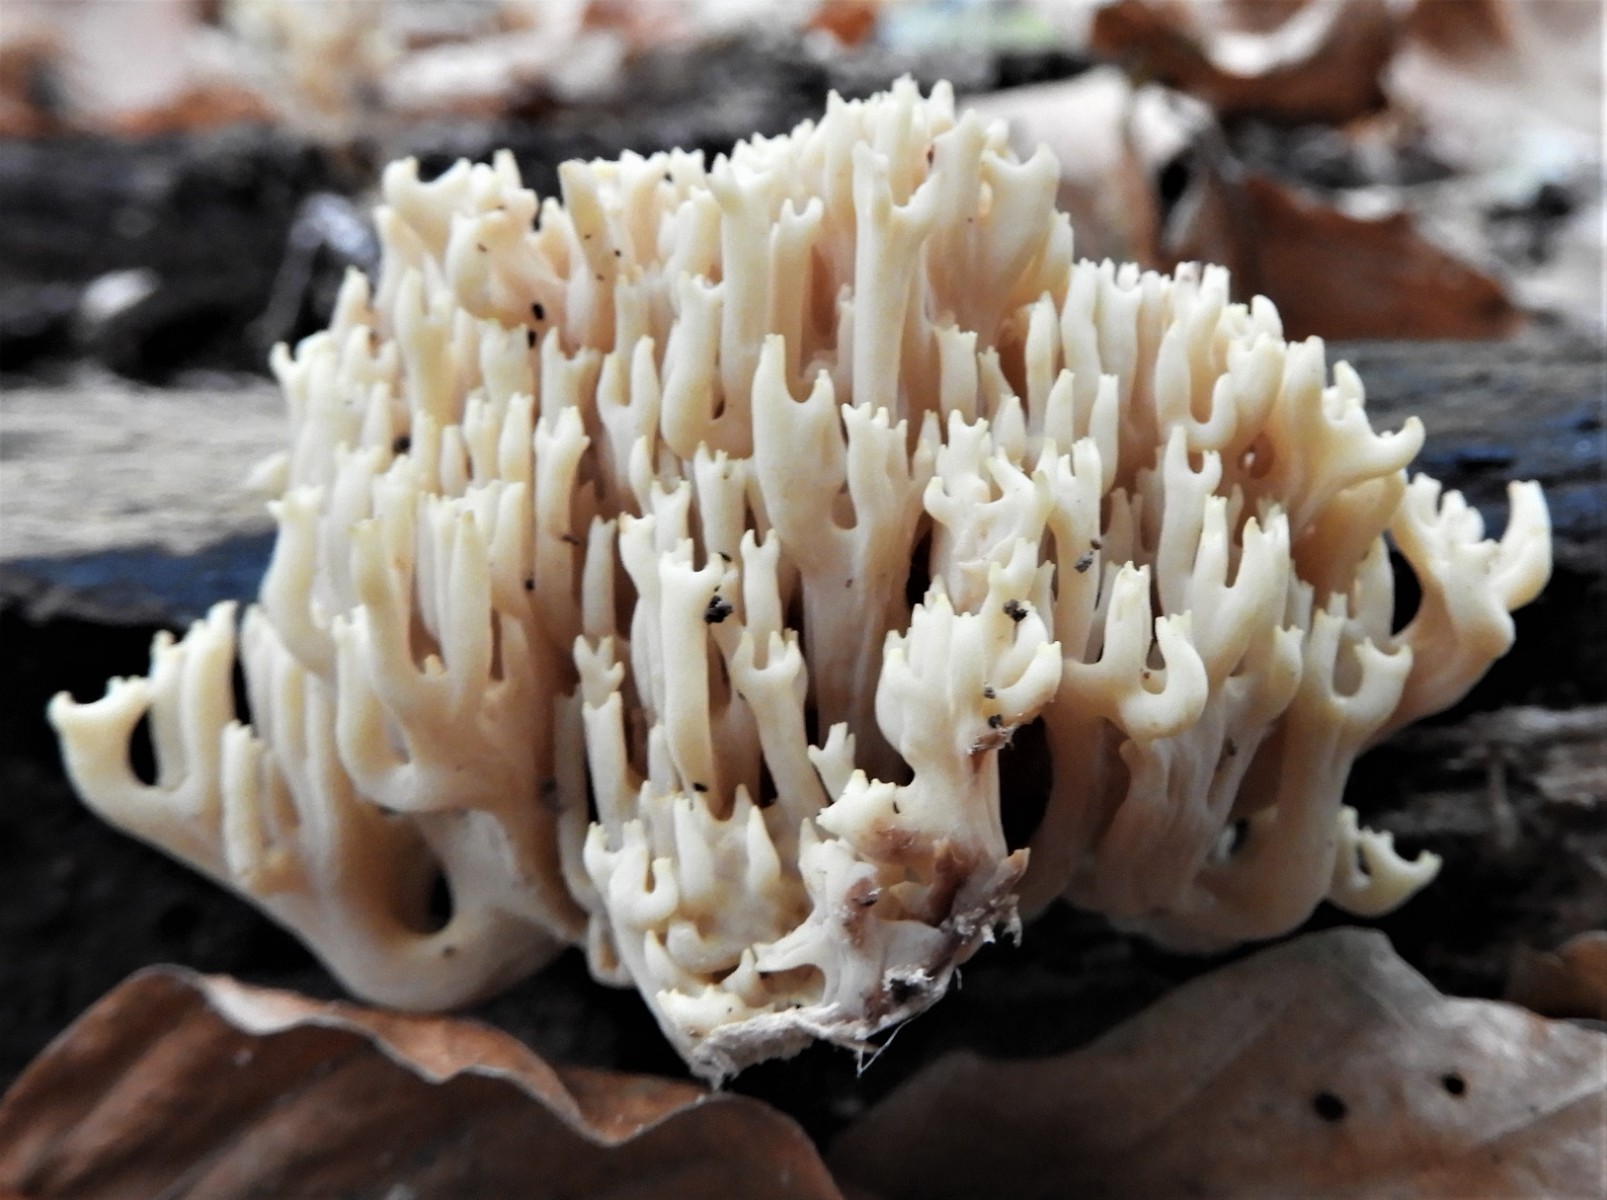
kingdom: Fungi
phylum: Basidiomycota
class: Agaricomycetes
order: Gomphales
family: Gomphaceae
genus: Ramaria
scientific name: Ramaria stricta
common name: rank koralsvamp
